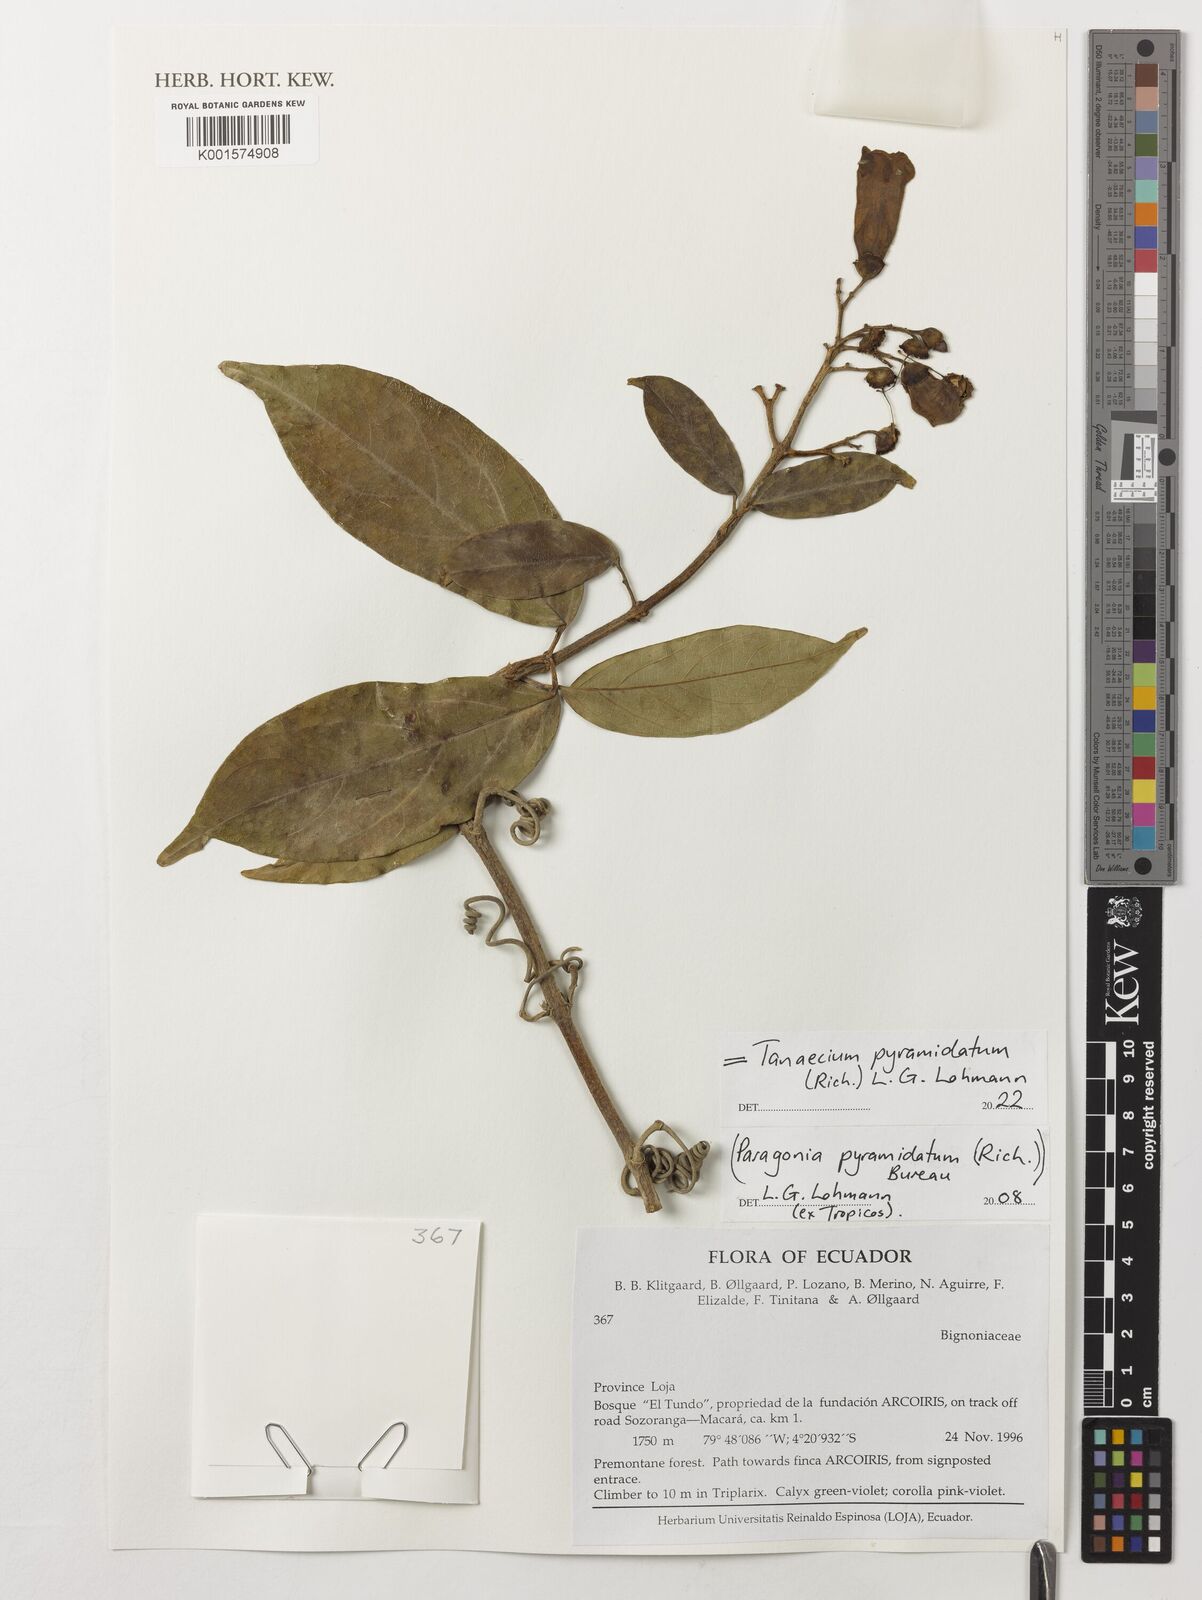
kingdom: Plantae
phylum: Tracheophyta
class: Magnoliopsida
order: Lamiales
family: Bignoniaceae
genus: Tanaecium
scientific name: Tanaecium pyramidatum
